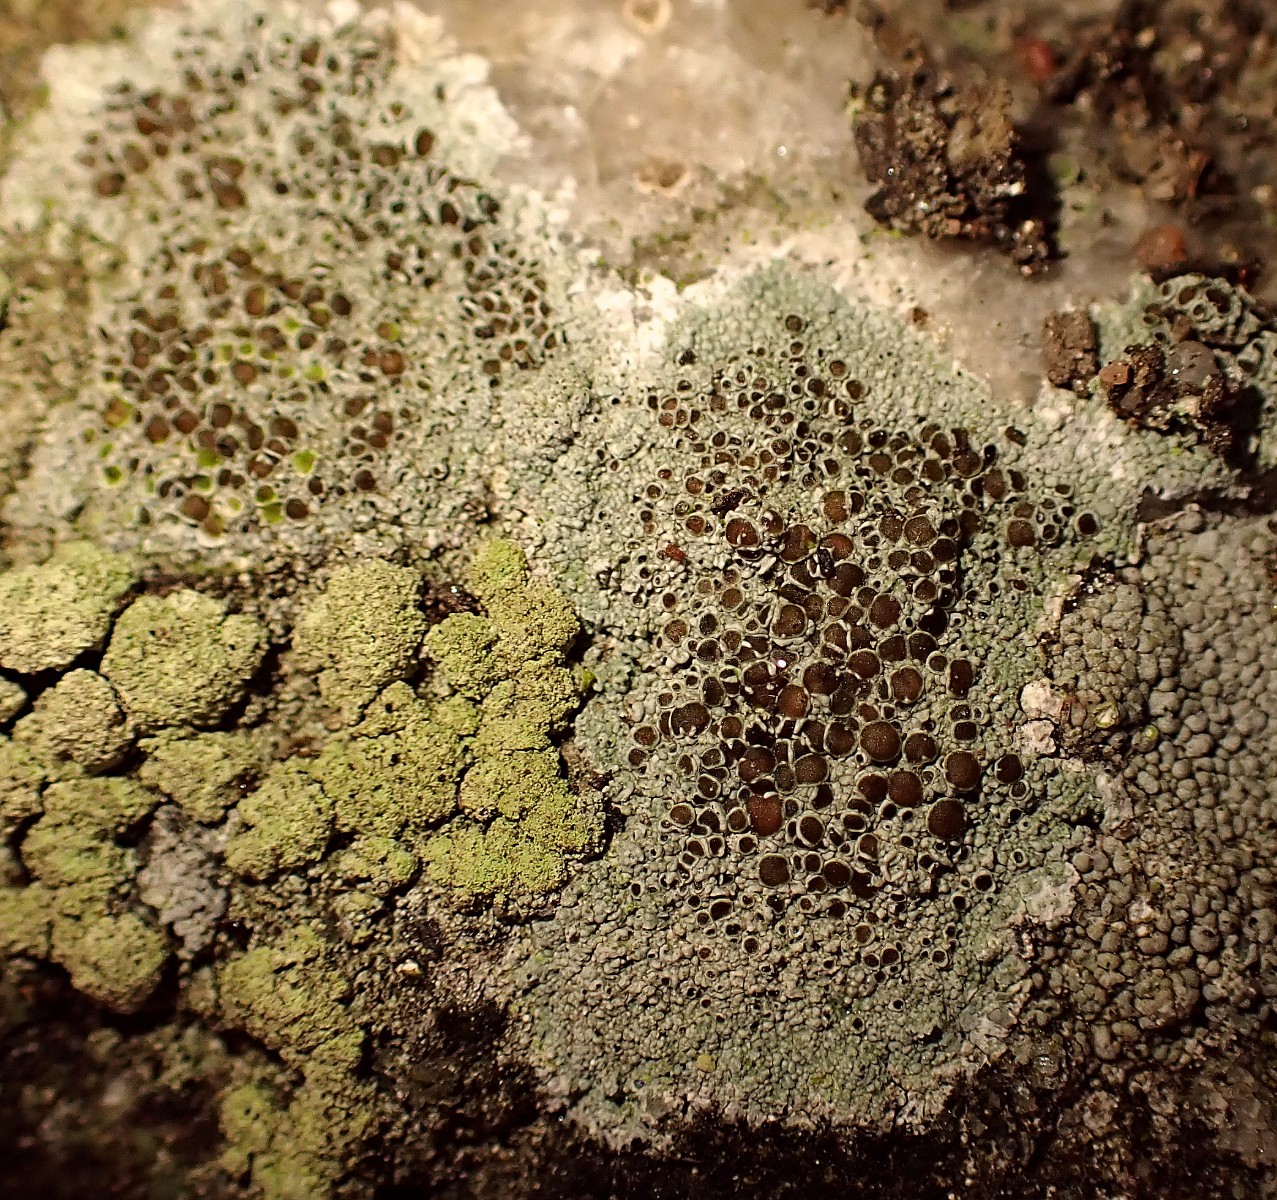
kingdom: Fungi
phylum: Ascomycota
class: Lecanoromycetes
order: Lecanorales
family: Lecanoraceae
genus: Lecanora
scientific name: Lecanora argentata
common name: sølv-kantskivelav
